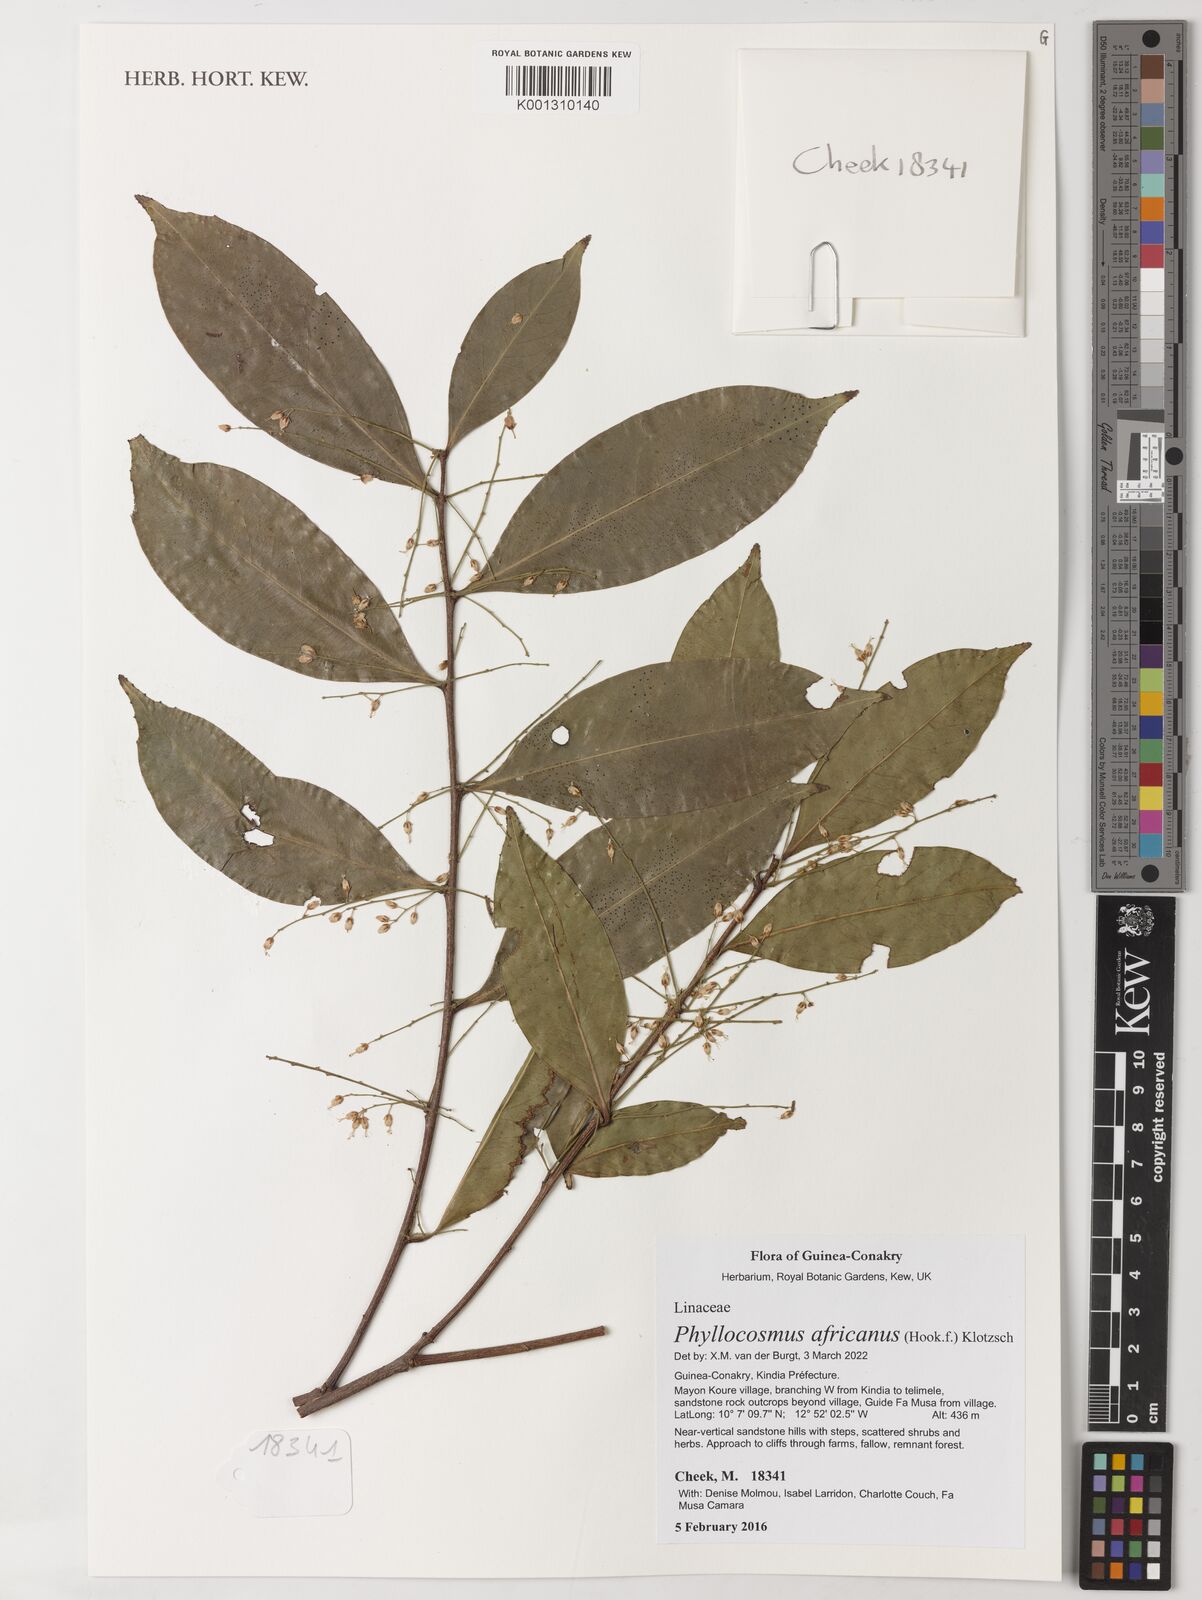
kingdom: Plantae
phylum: Tracheophyta
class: Magnoliopsida
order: Malpighiales
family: Ixonanthaceae
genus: Phyllocosmus
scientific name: Phyllocosmus africanus
